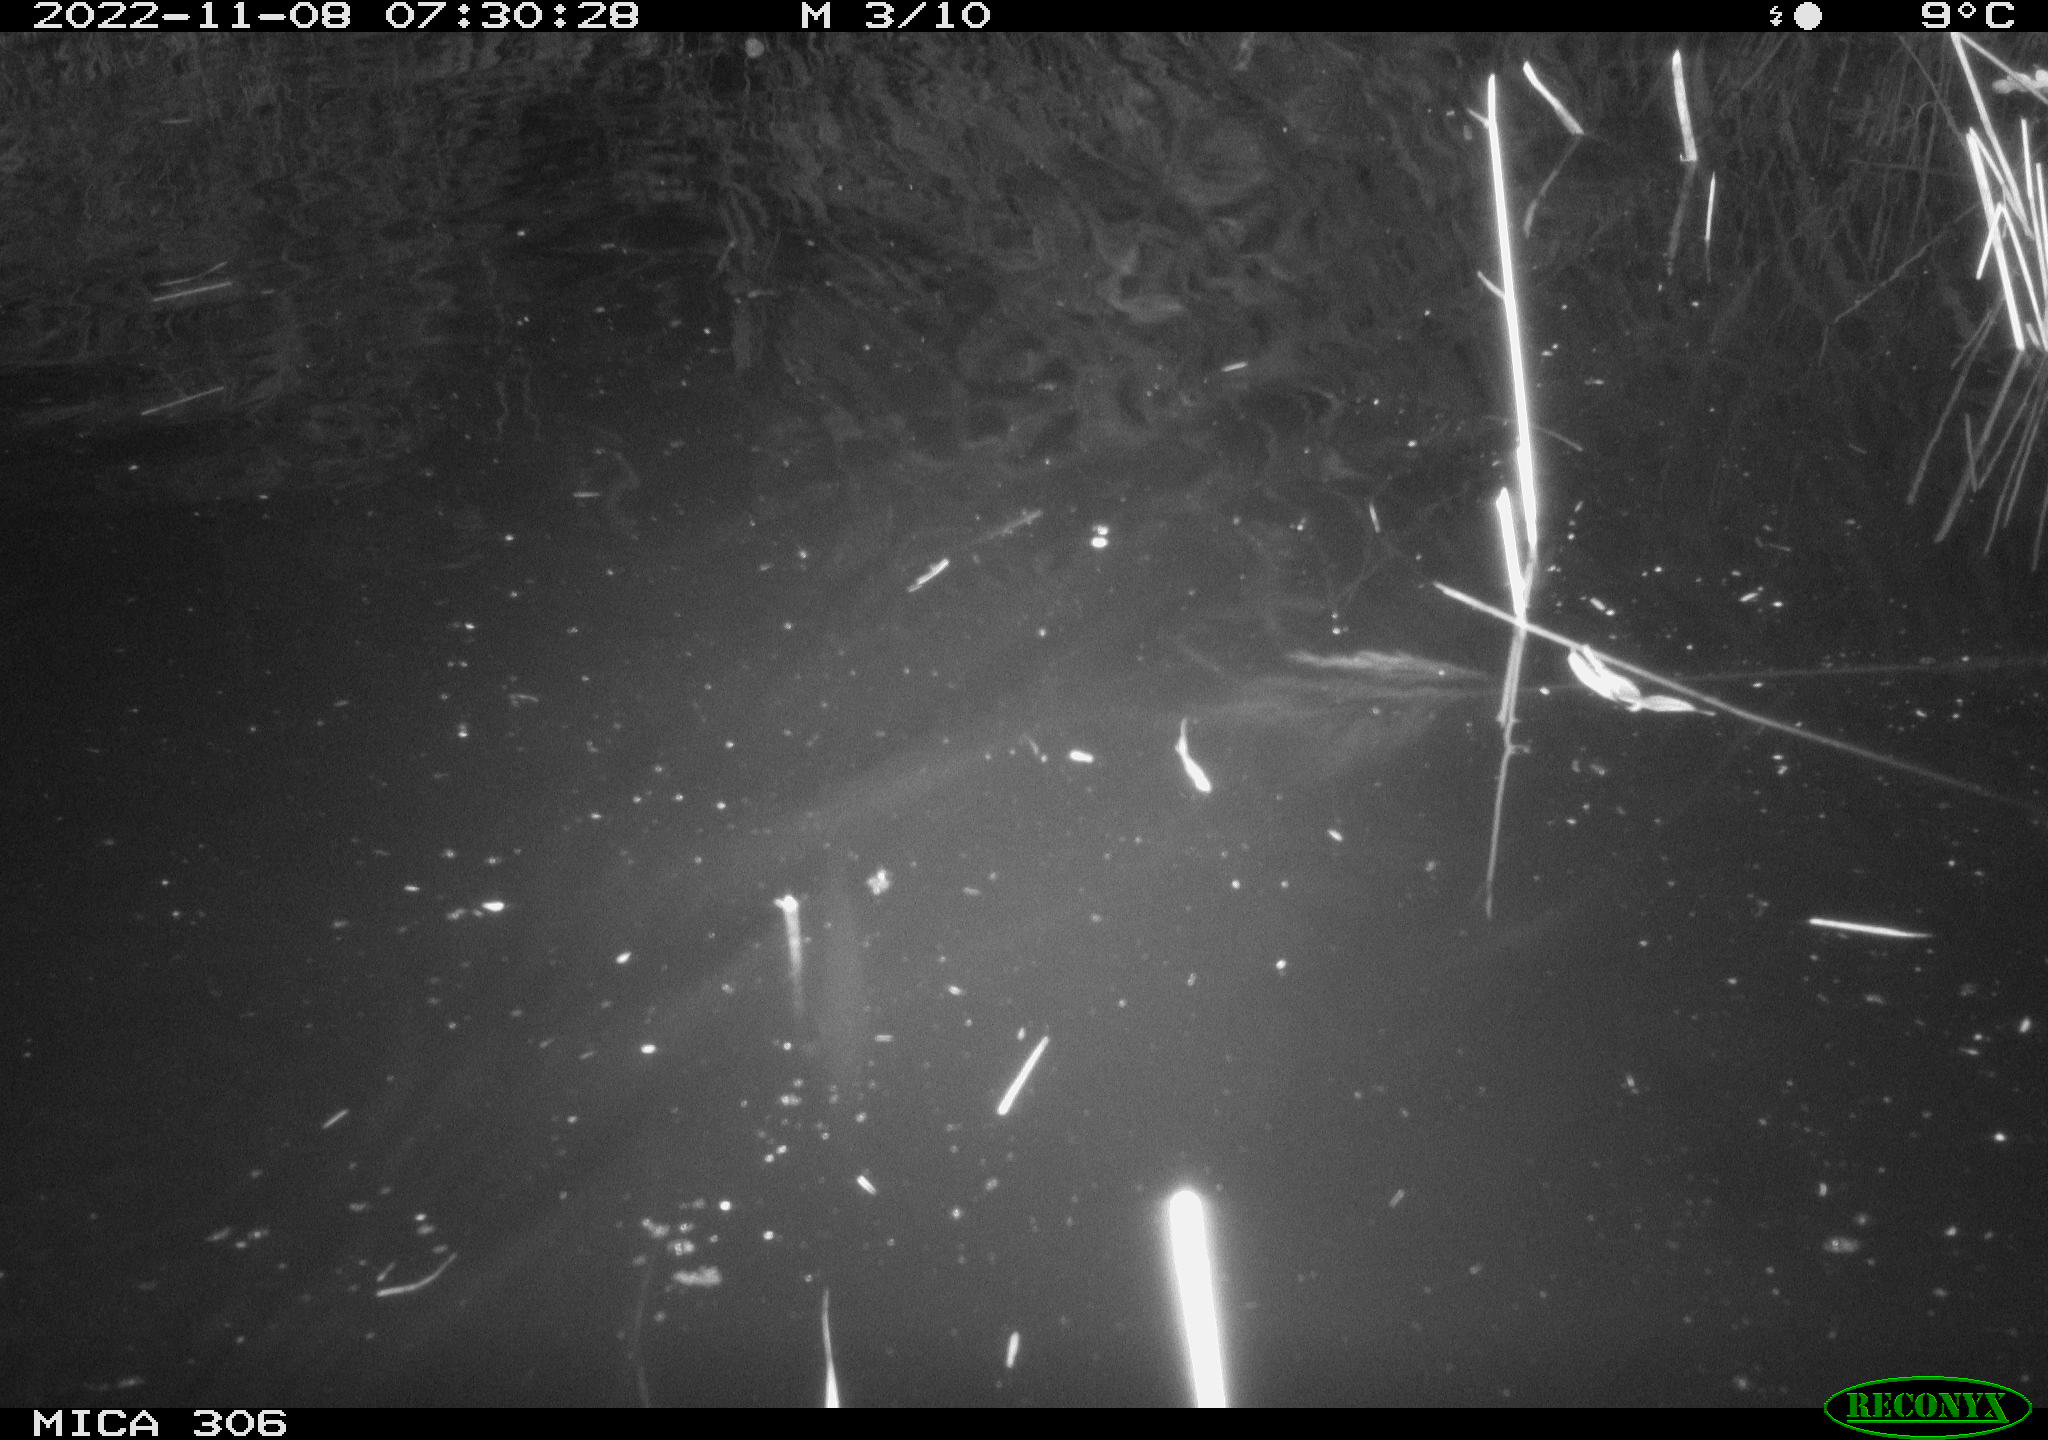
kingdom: Animalia
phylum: Chordata
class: Mammalia
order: Rodentia
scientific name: Rodentia
